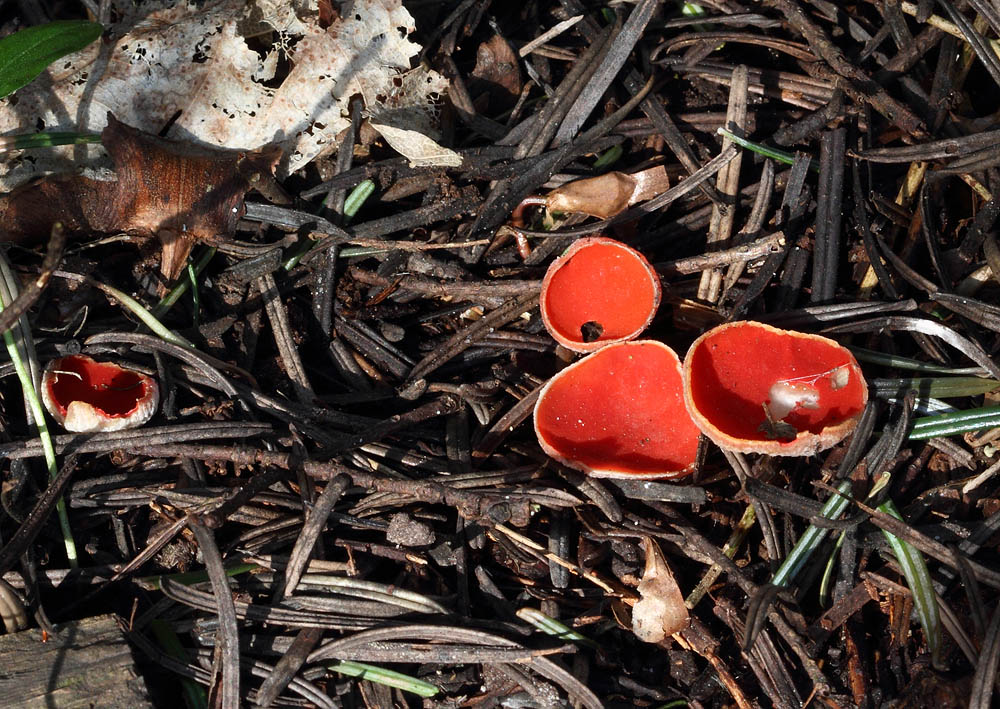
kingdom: Fungi
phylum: Ascomycota
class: Pezizomycetes
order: Pezizales
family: Sarcoscyphaceae
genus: Sarcoscypha
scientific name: Sarcoscypha austriaca
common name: krølhåret pragtbæger
